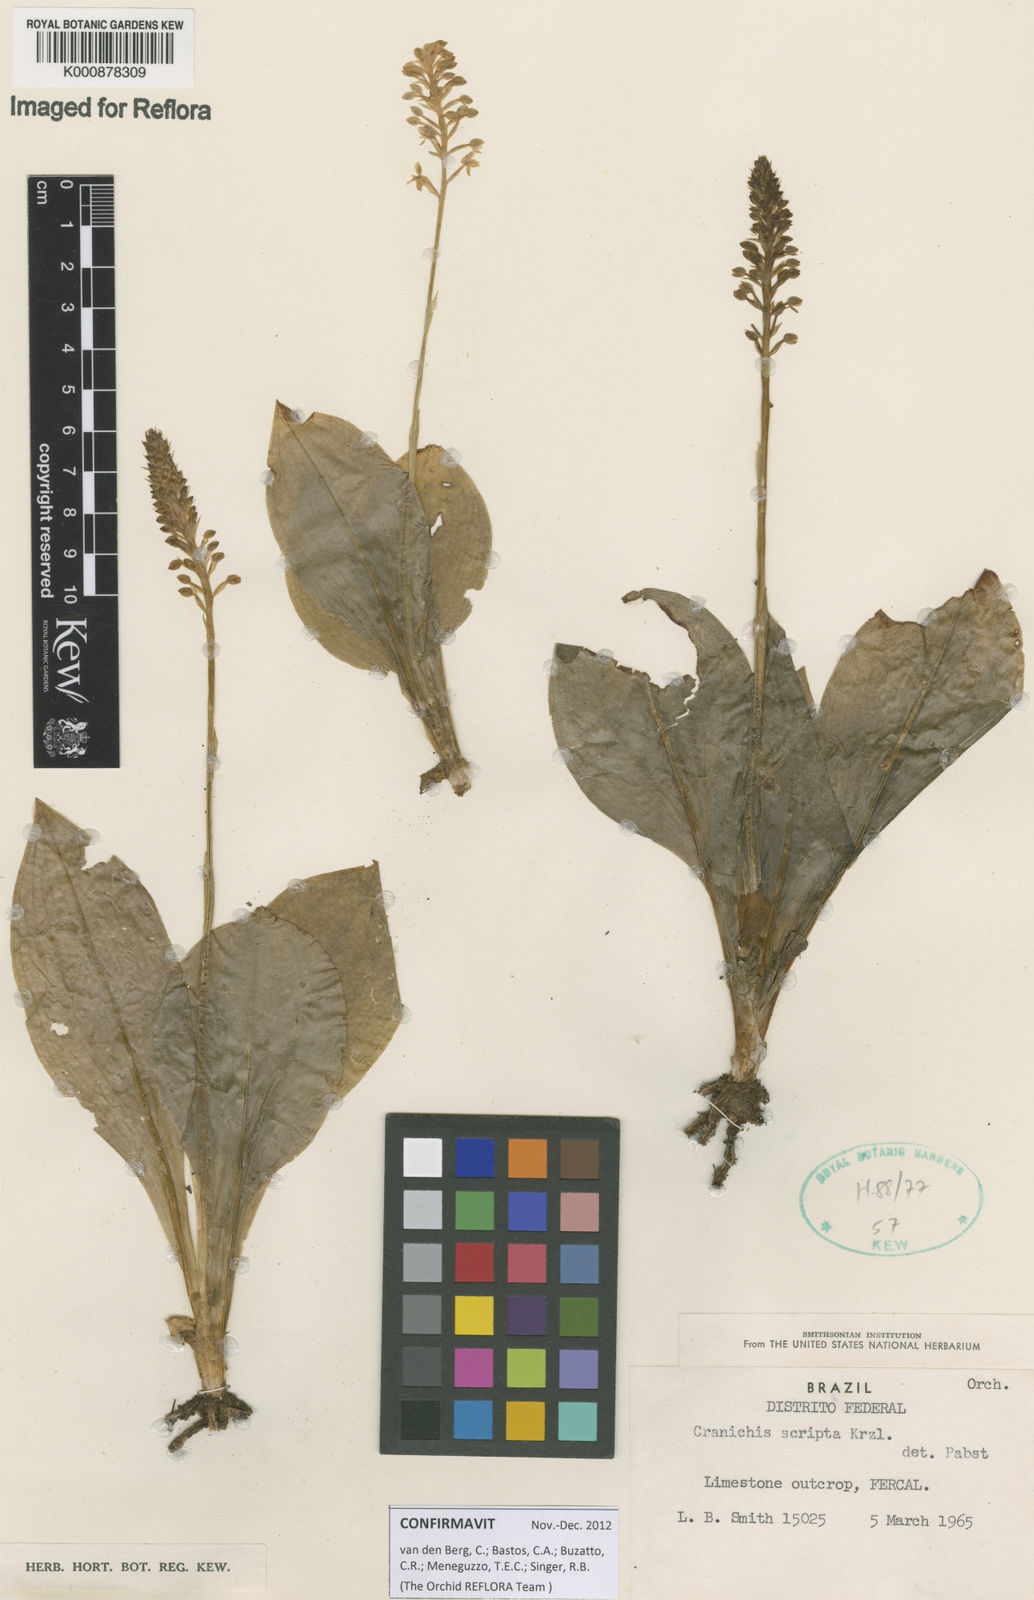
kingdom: Plantae
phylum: Tracheophyta
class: Liliopsida
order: Asparagales
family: Orchidaceae
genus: Cranichis
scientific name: Cranichis scripta
